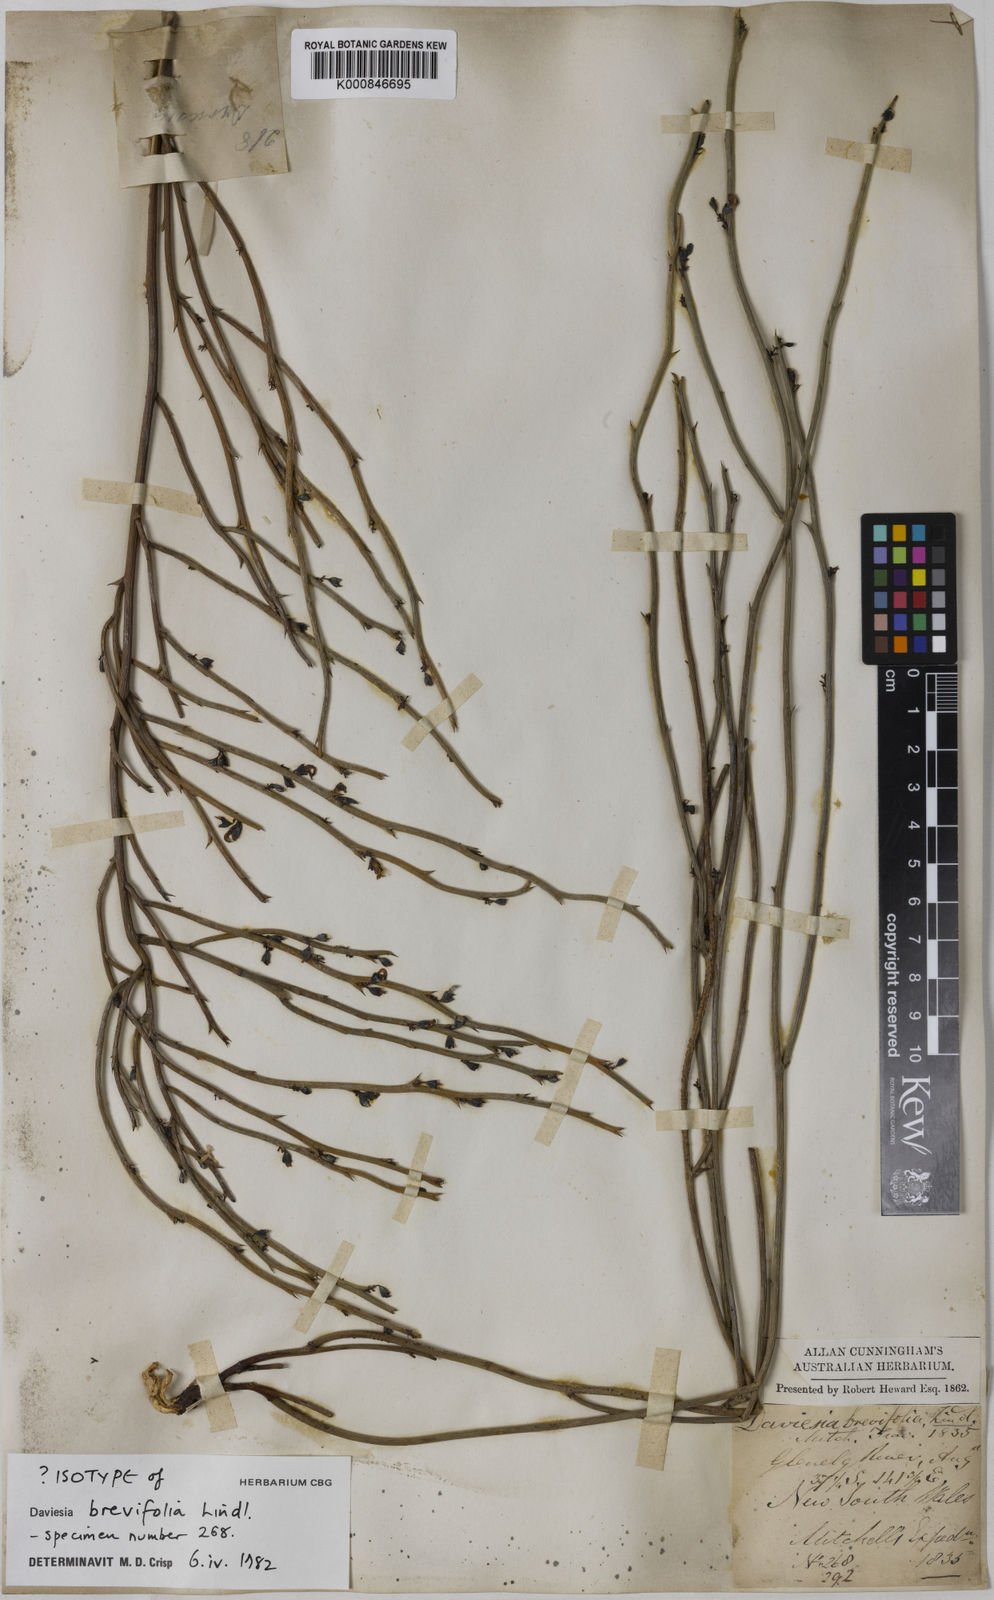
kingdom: Plantae
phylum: Tracheophyta
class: Magnoliopsida
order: Fabales
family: Fabaceae
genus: Daviesia
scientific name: Daviesia brevifolia
